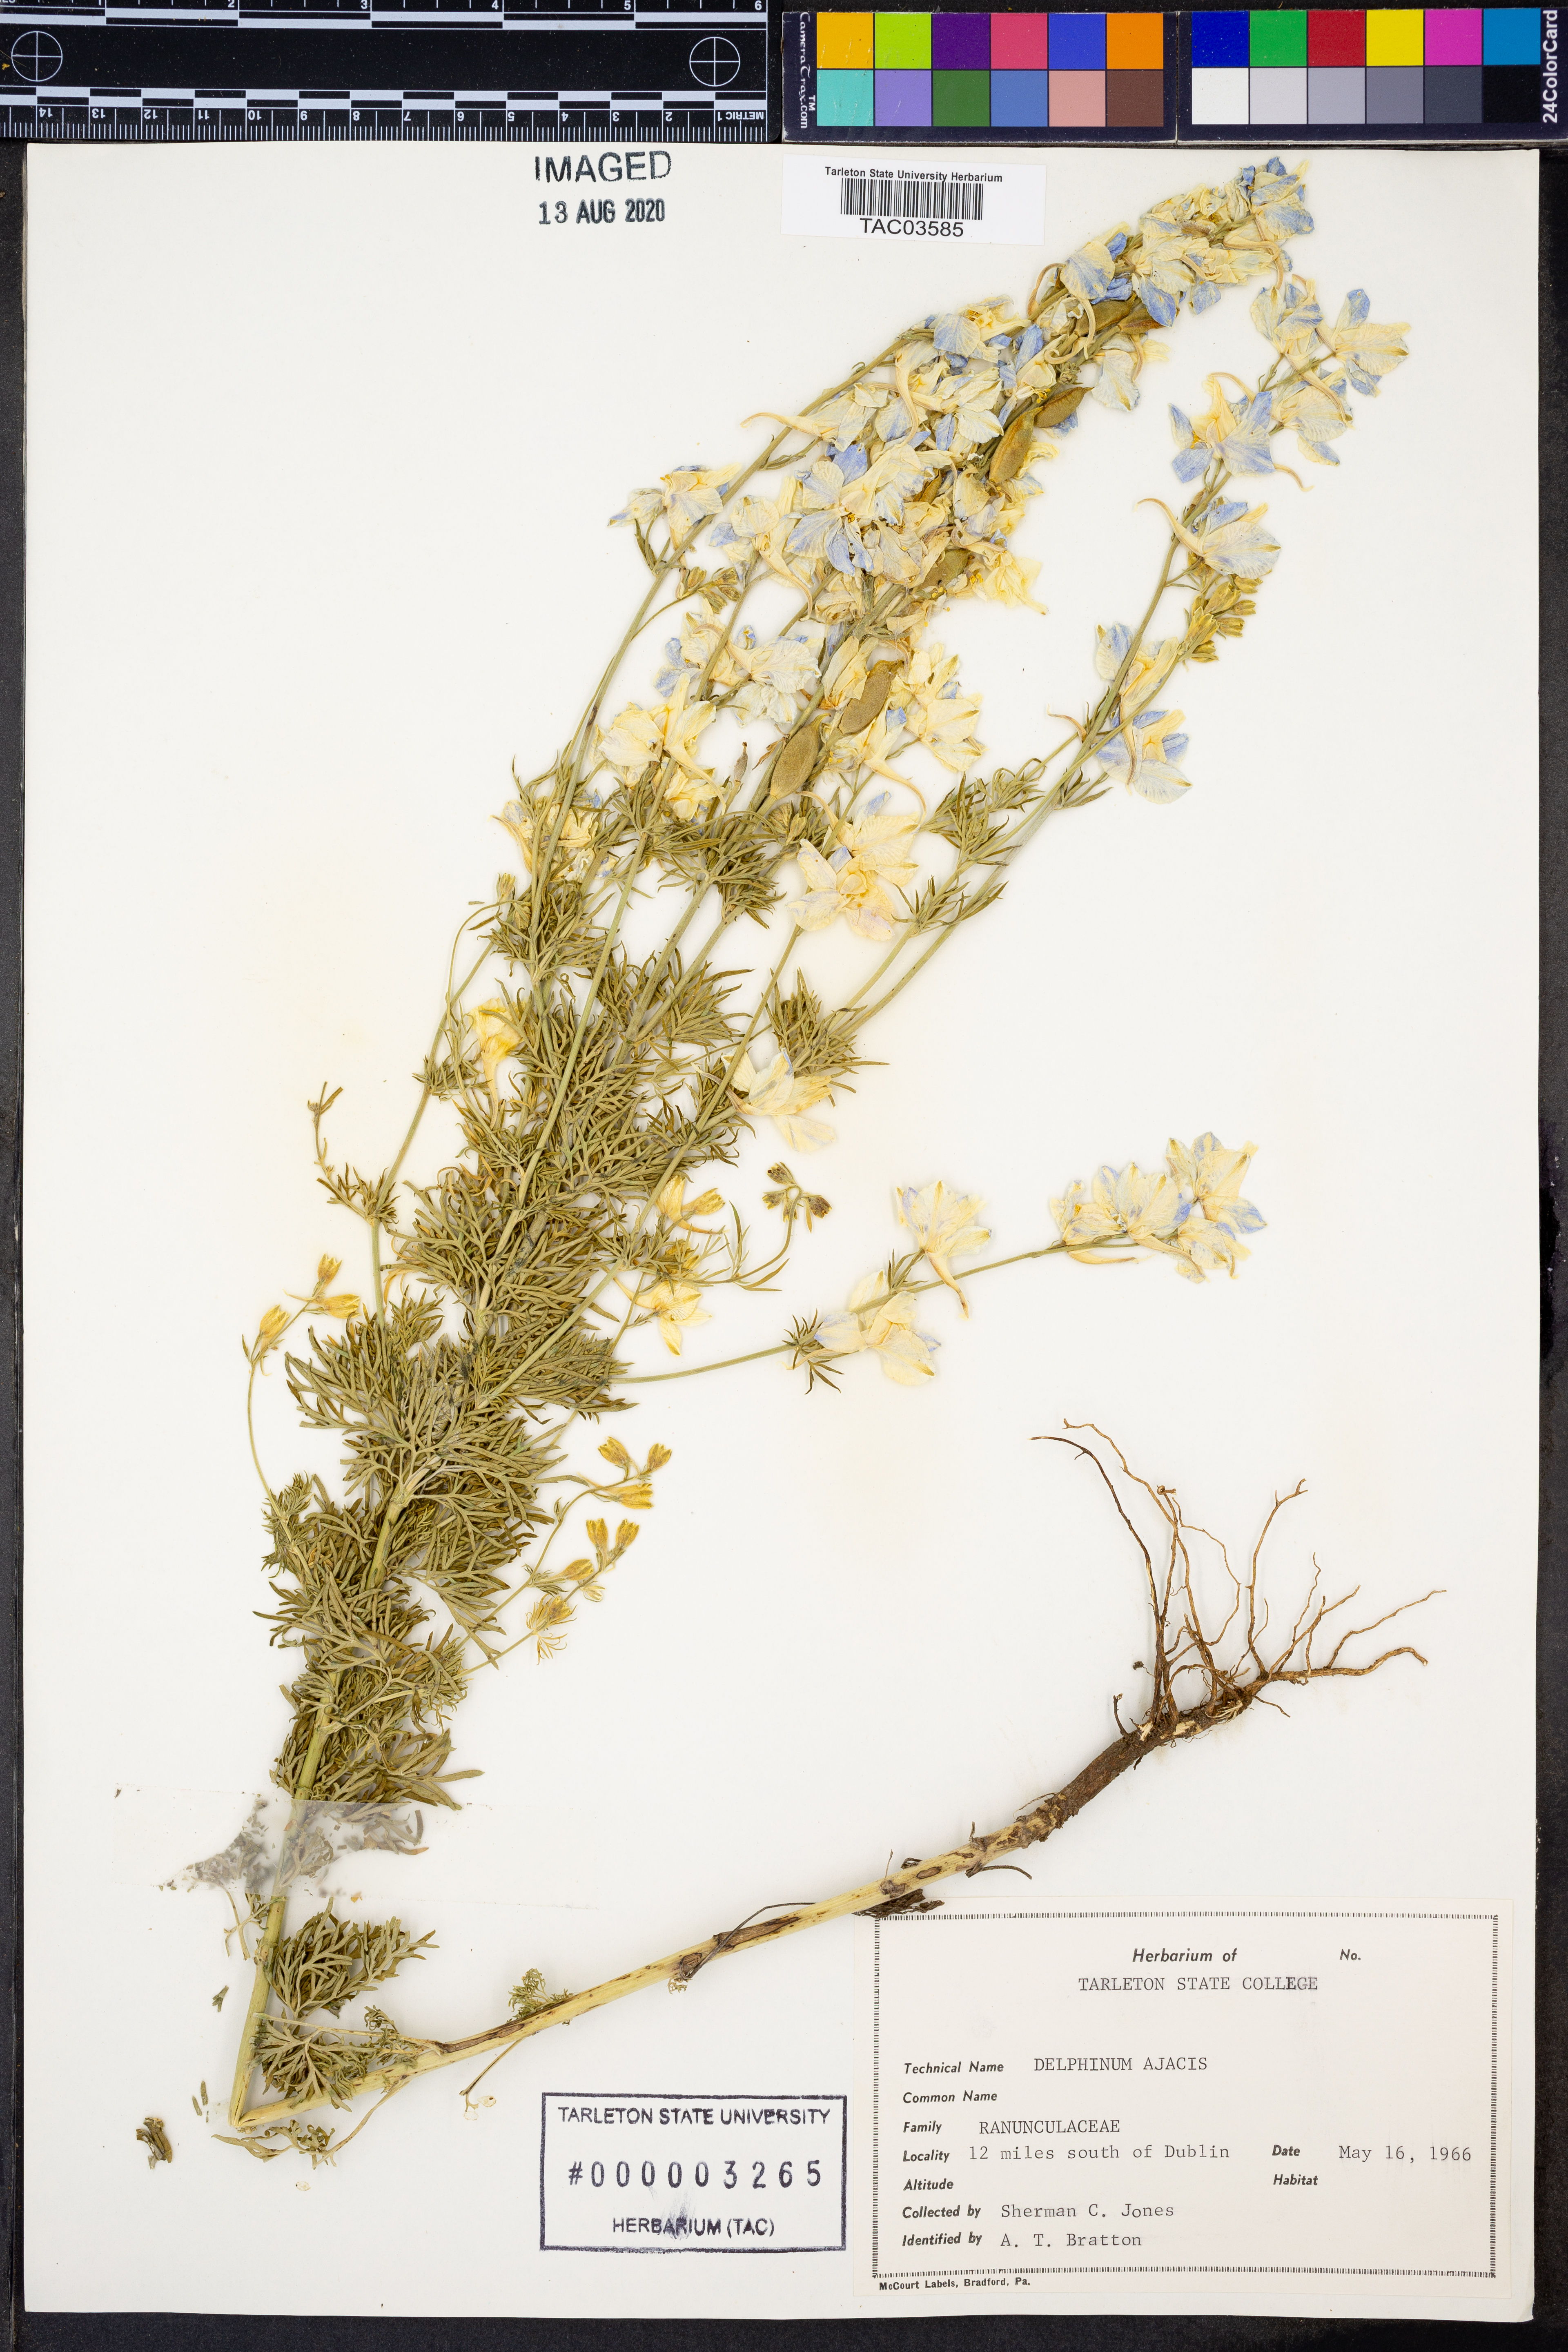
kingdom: Plantae
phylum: Tracheophyta
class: Magnoliopsida
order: Ranunculales
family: Ranunculaceae
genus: Delphinium
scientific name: Delphinium ajacis
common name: Doubtful knight's-spur
